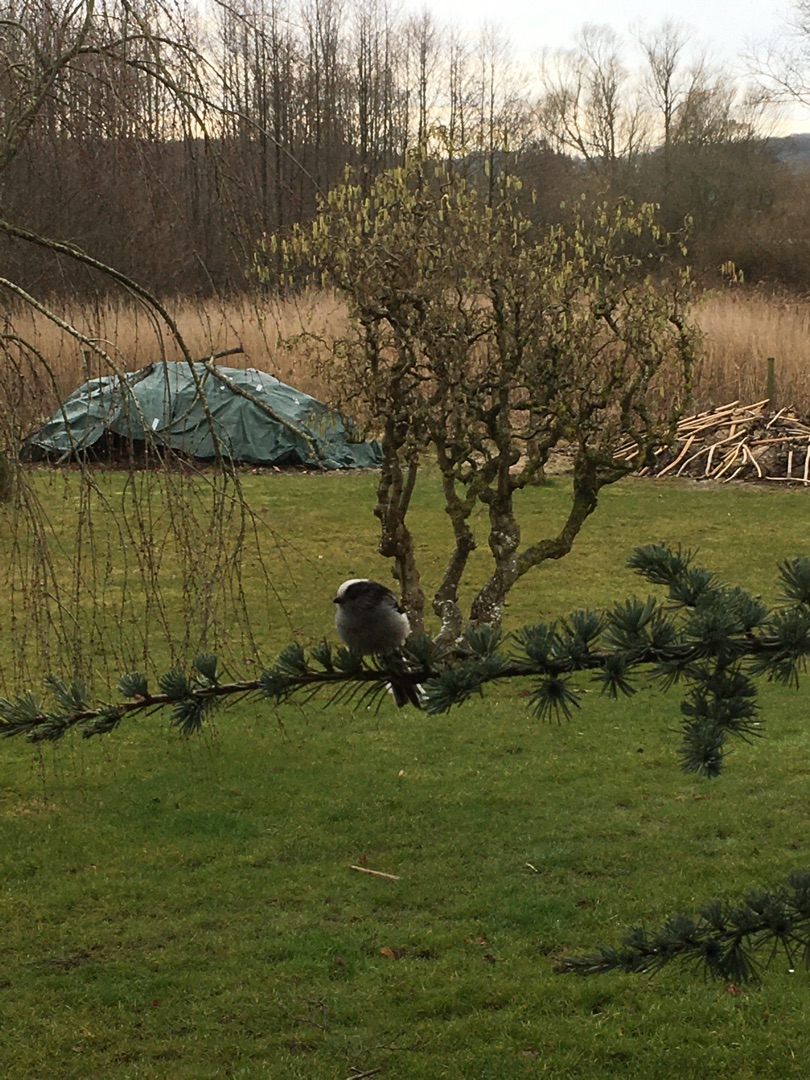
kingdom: Animalia
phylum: Chordata
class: Aves
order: Passeriformes
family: Aegithalidae
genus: Aegithalos
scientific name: Aegithalos caudatus
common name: Halemejse
